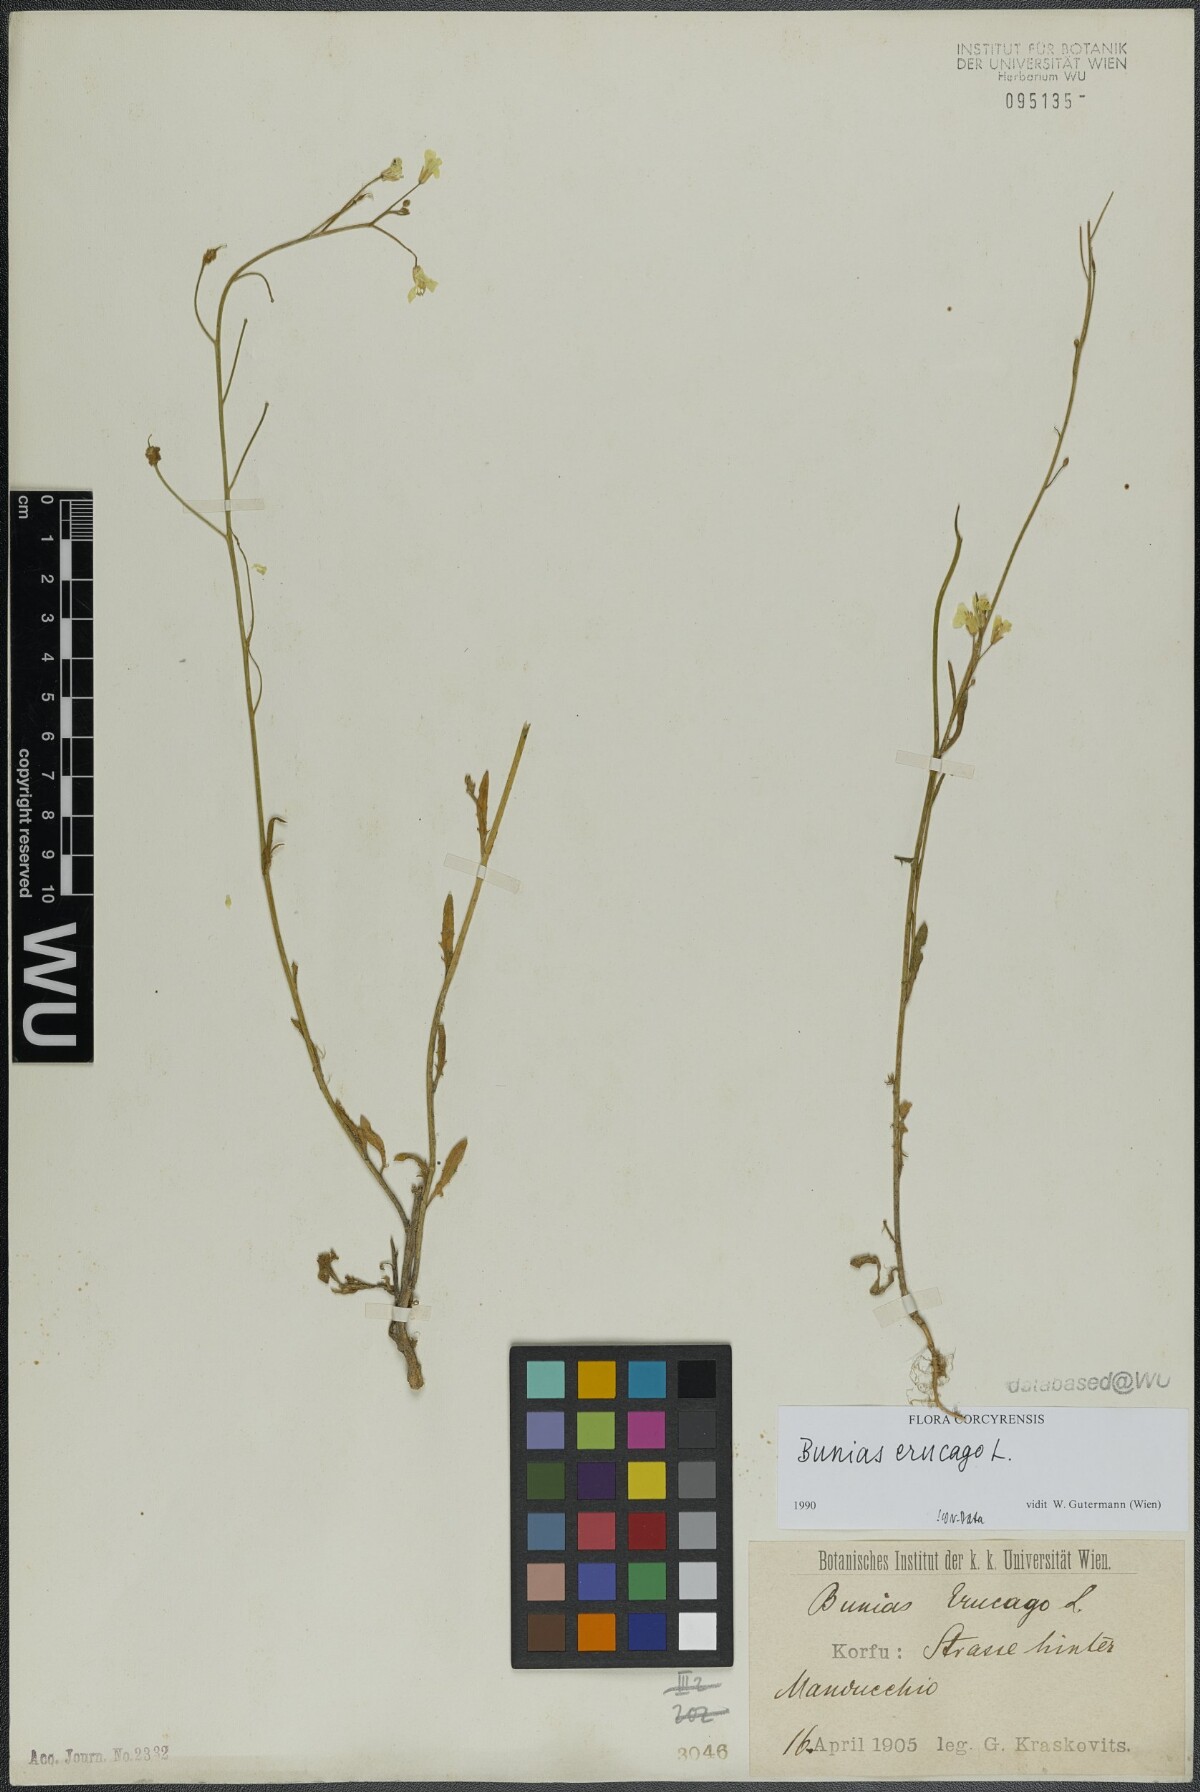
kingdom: Plantae
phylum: Tracheophyta
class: Magnoliopsida
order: Brassicales
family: Brassicaceae
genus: Bunias
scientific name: Bunias erucago
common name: Southern warty-cabbage
